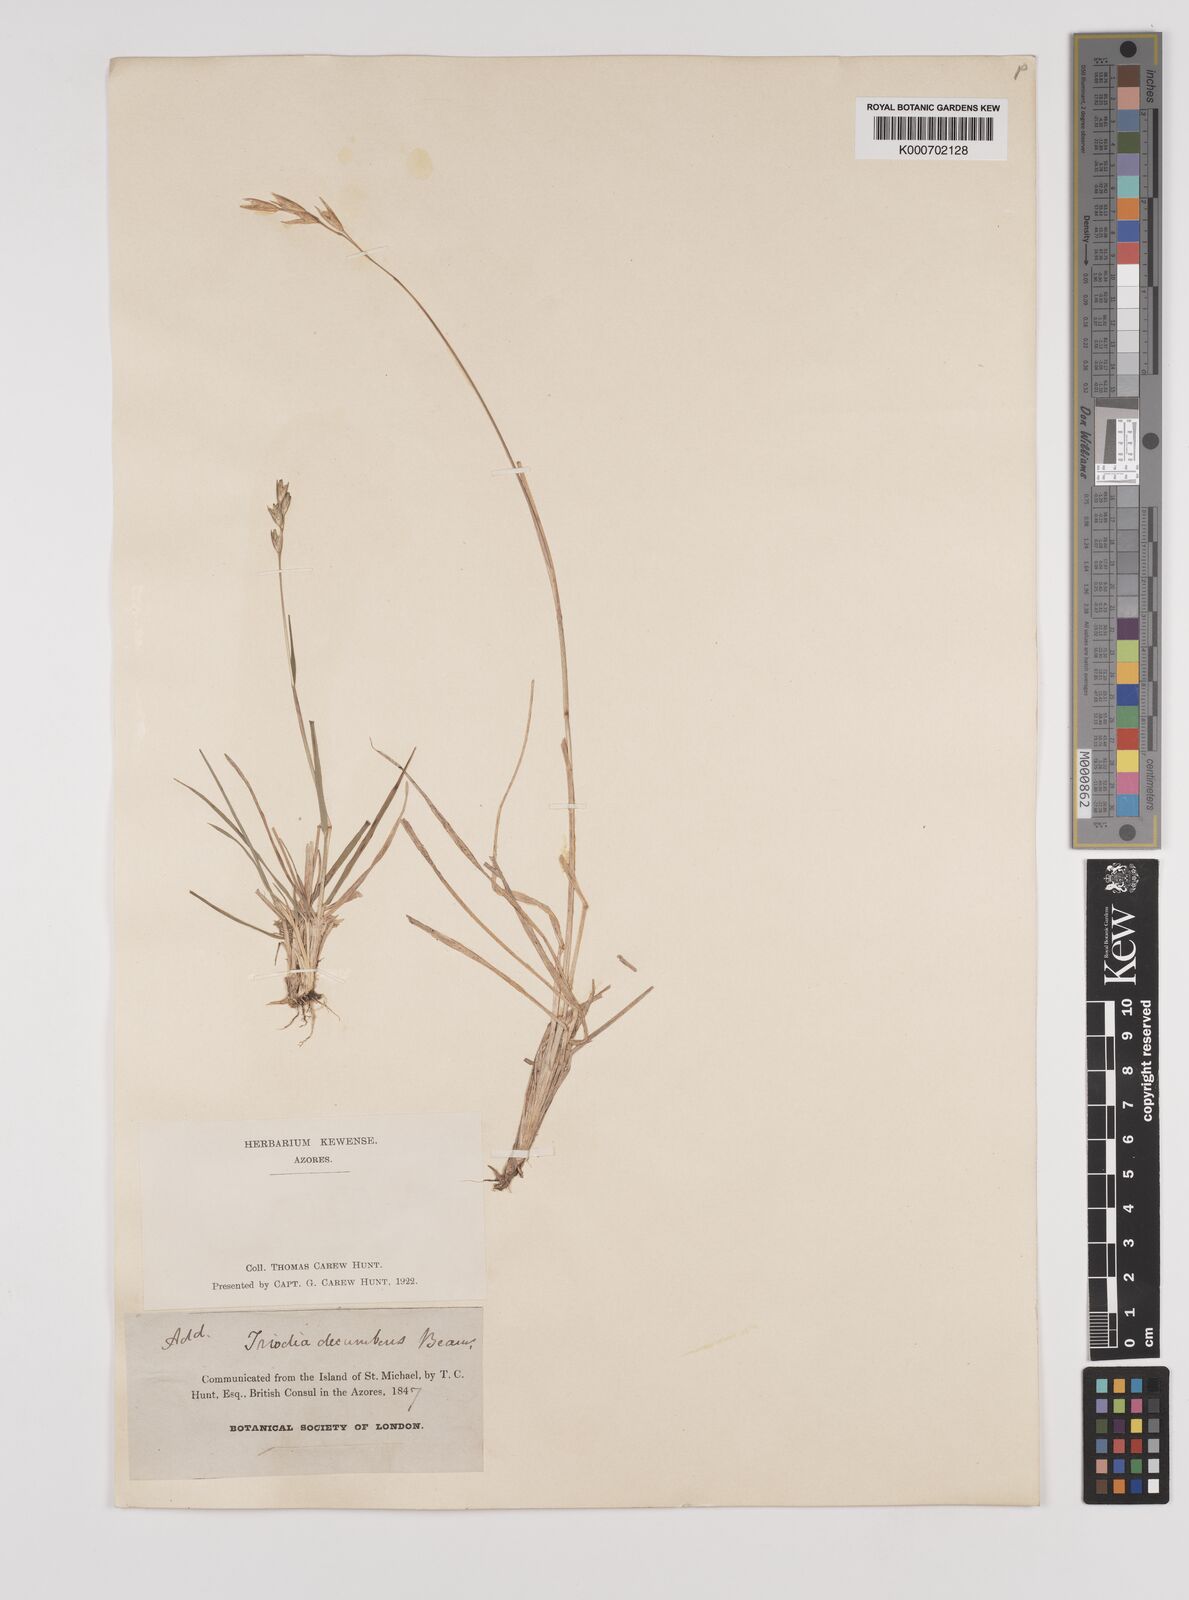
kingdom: Plantae
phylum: Tracheophyta
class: Liliopsida
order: Poales
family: Poaceae
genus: Danthonia
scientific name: Danthonia decumbens
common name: Common heathgrass
